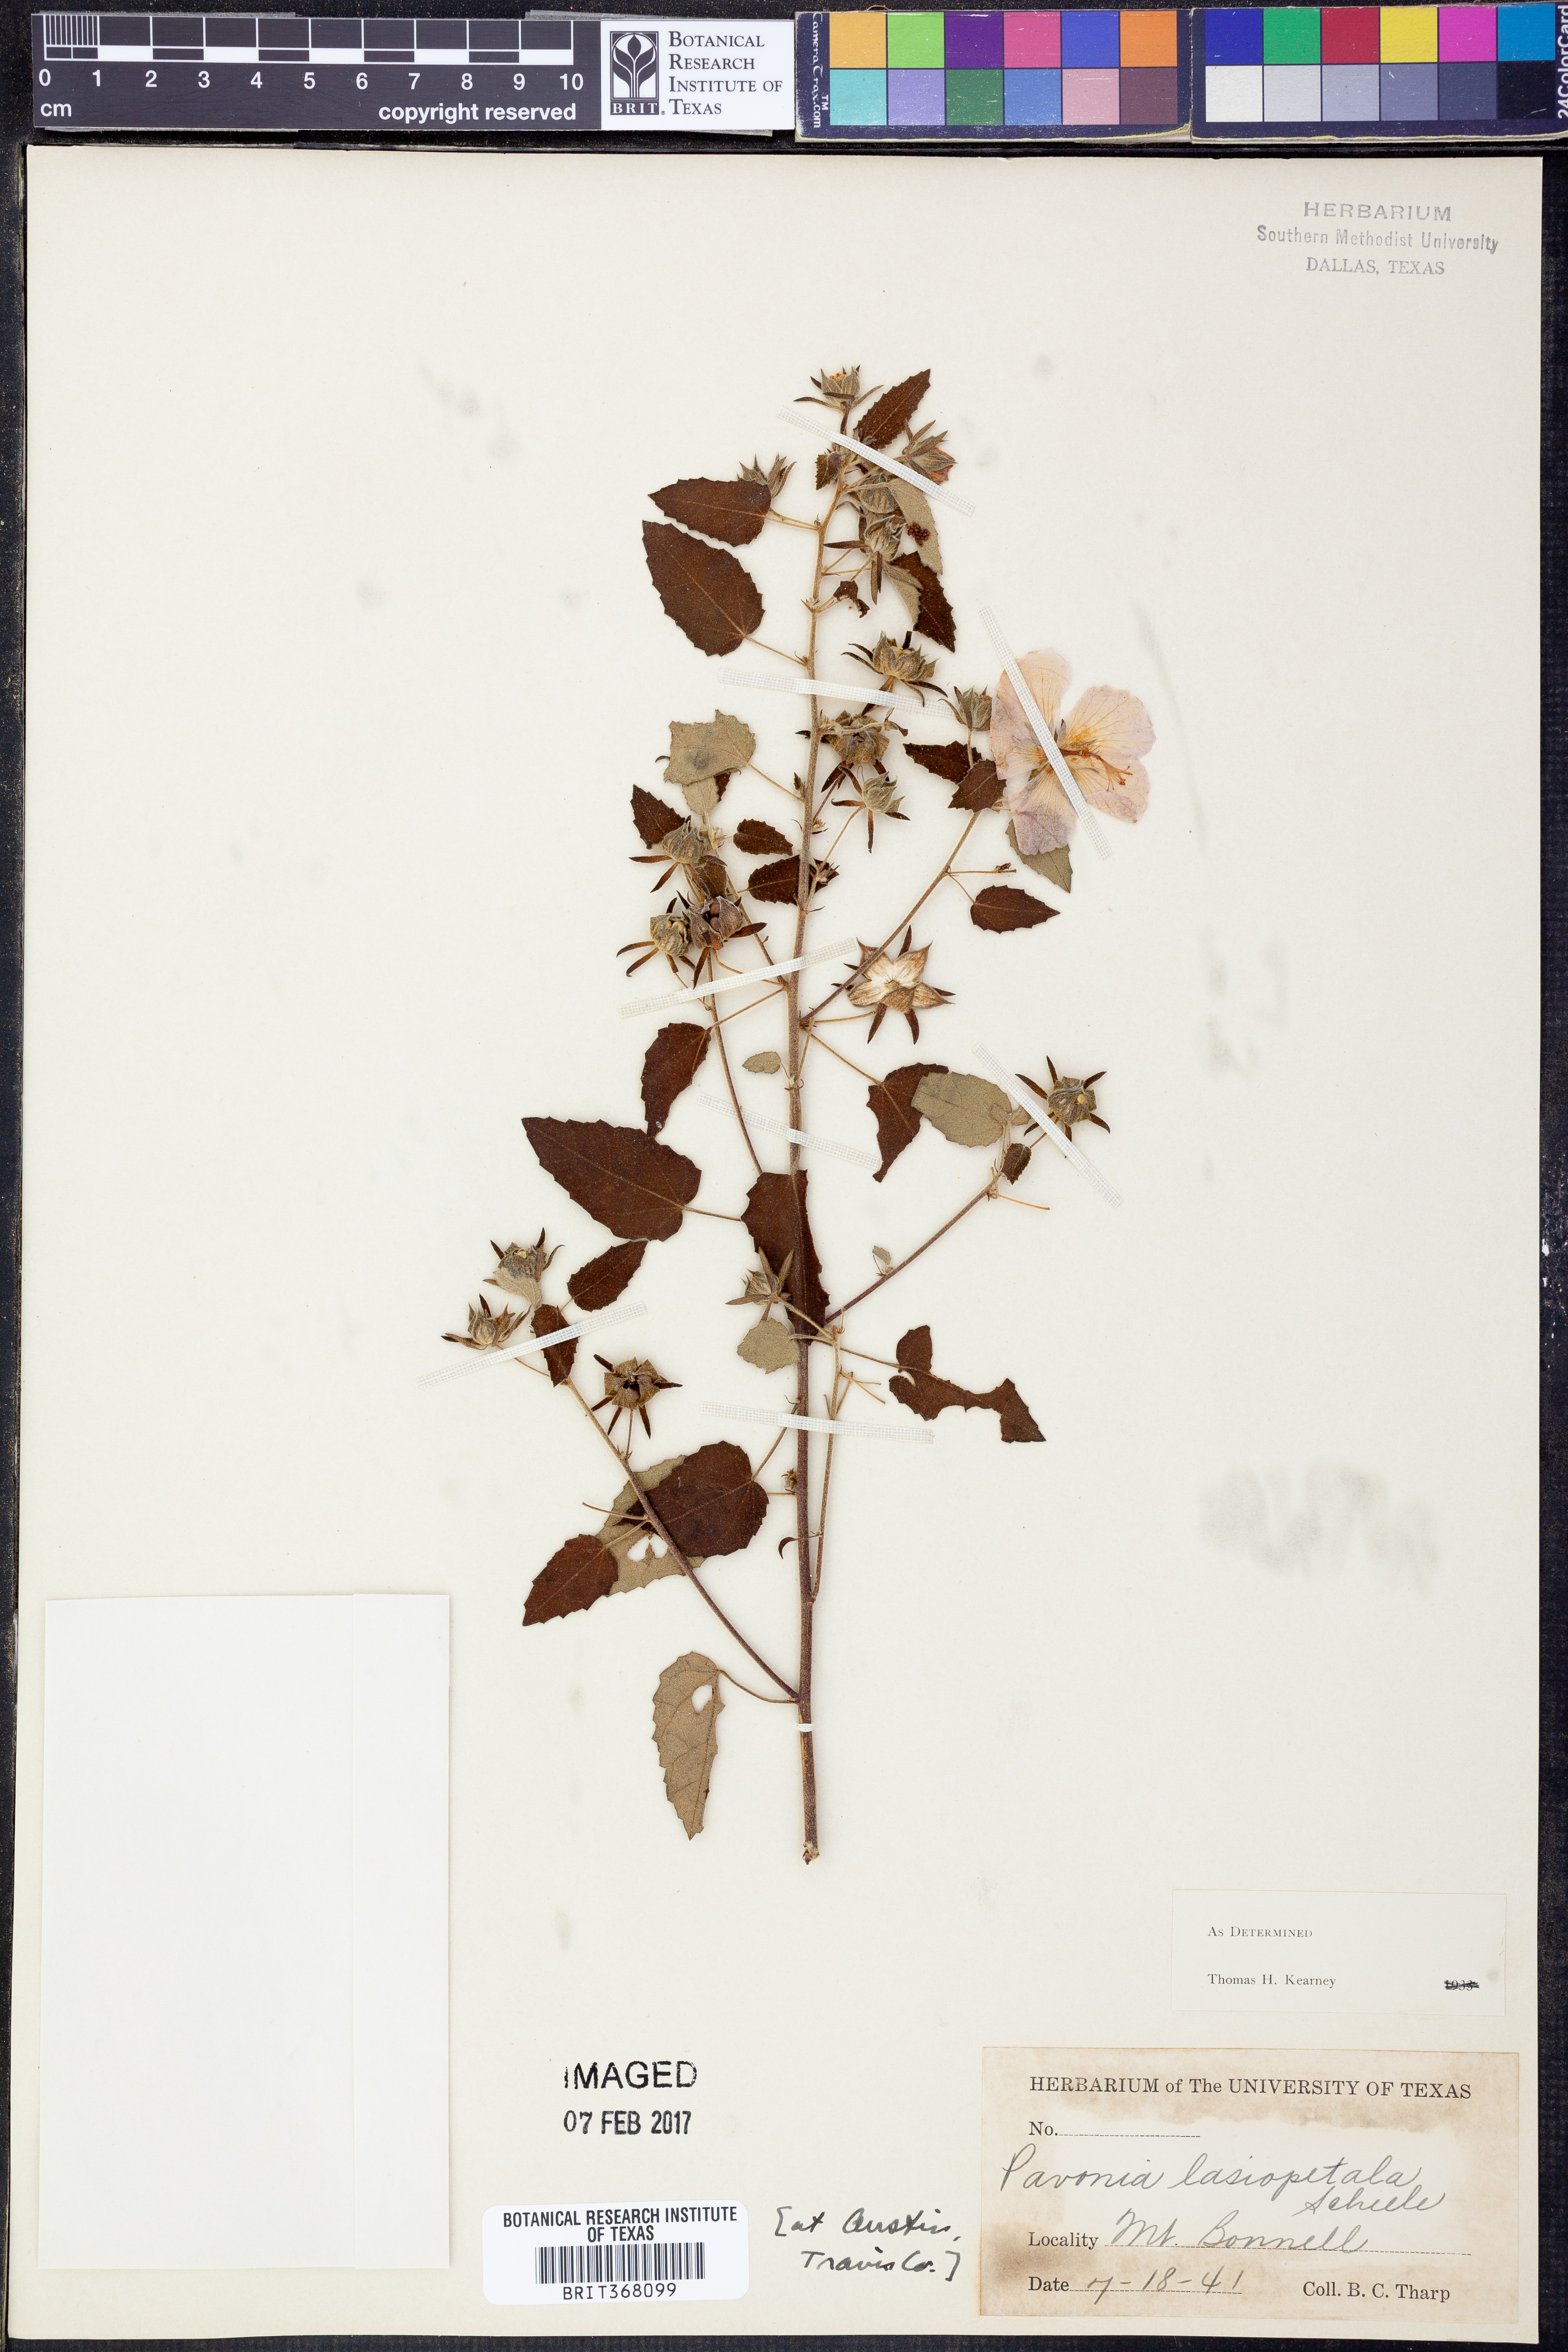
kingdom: Plantae
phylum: Tracheophyta
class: Magnoliopsida
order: Malvales
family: Malvaceae
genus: Pavonia
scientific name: Pavonia lasiopetala
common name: Texas swamp-mallow
